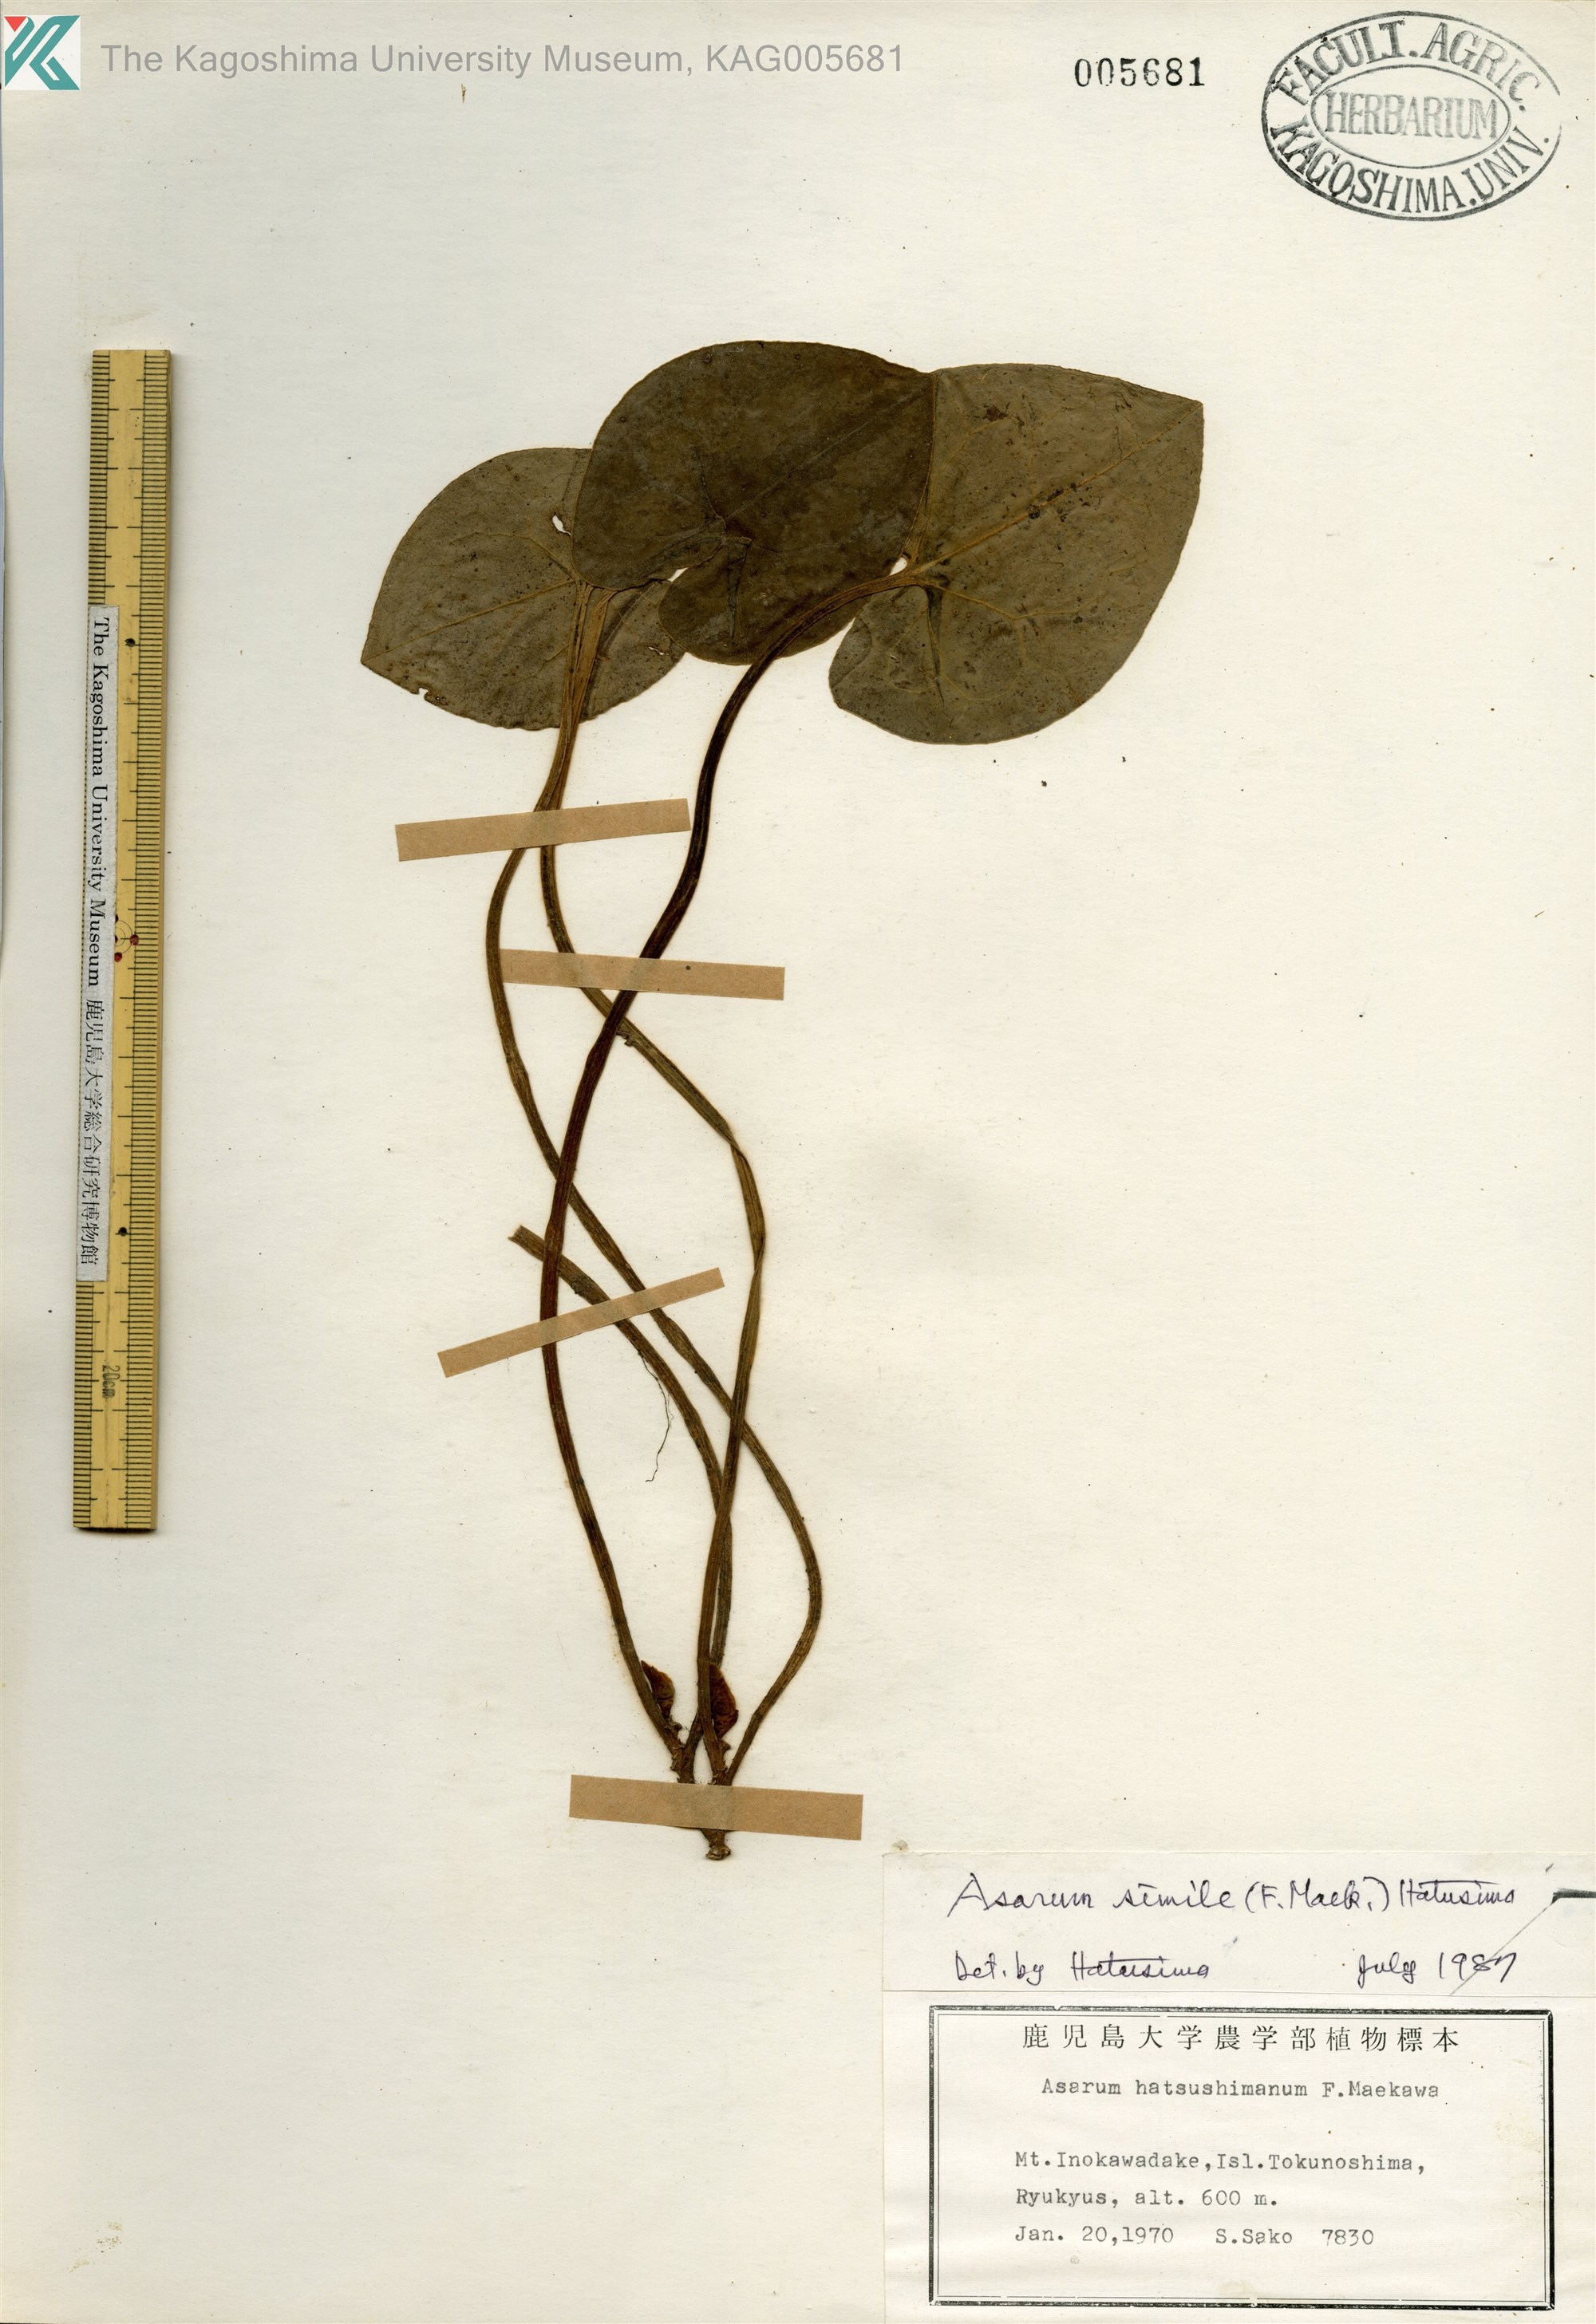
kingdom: Plantae
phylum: Tracheophyta
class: Magnoliopsida
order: Piperales
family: Aristolochiaceae
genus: Asarum
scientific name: Asarum simile
